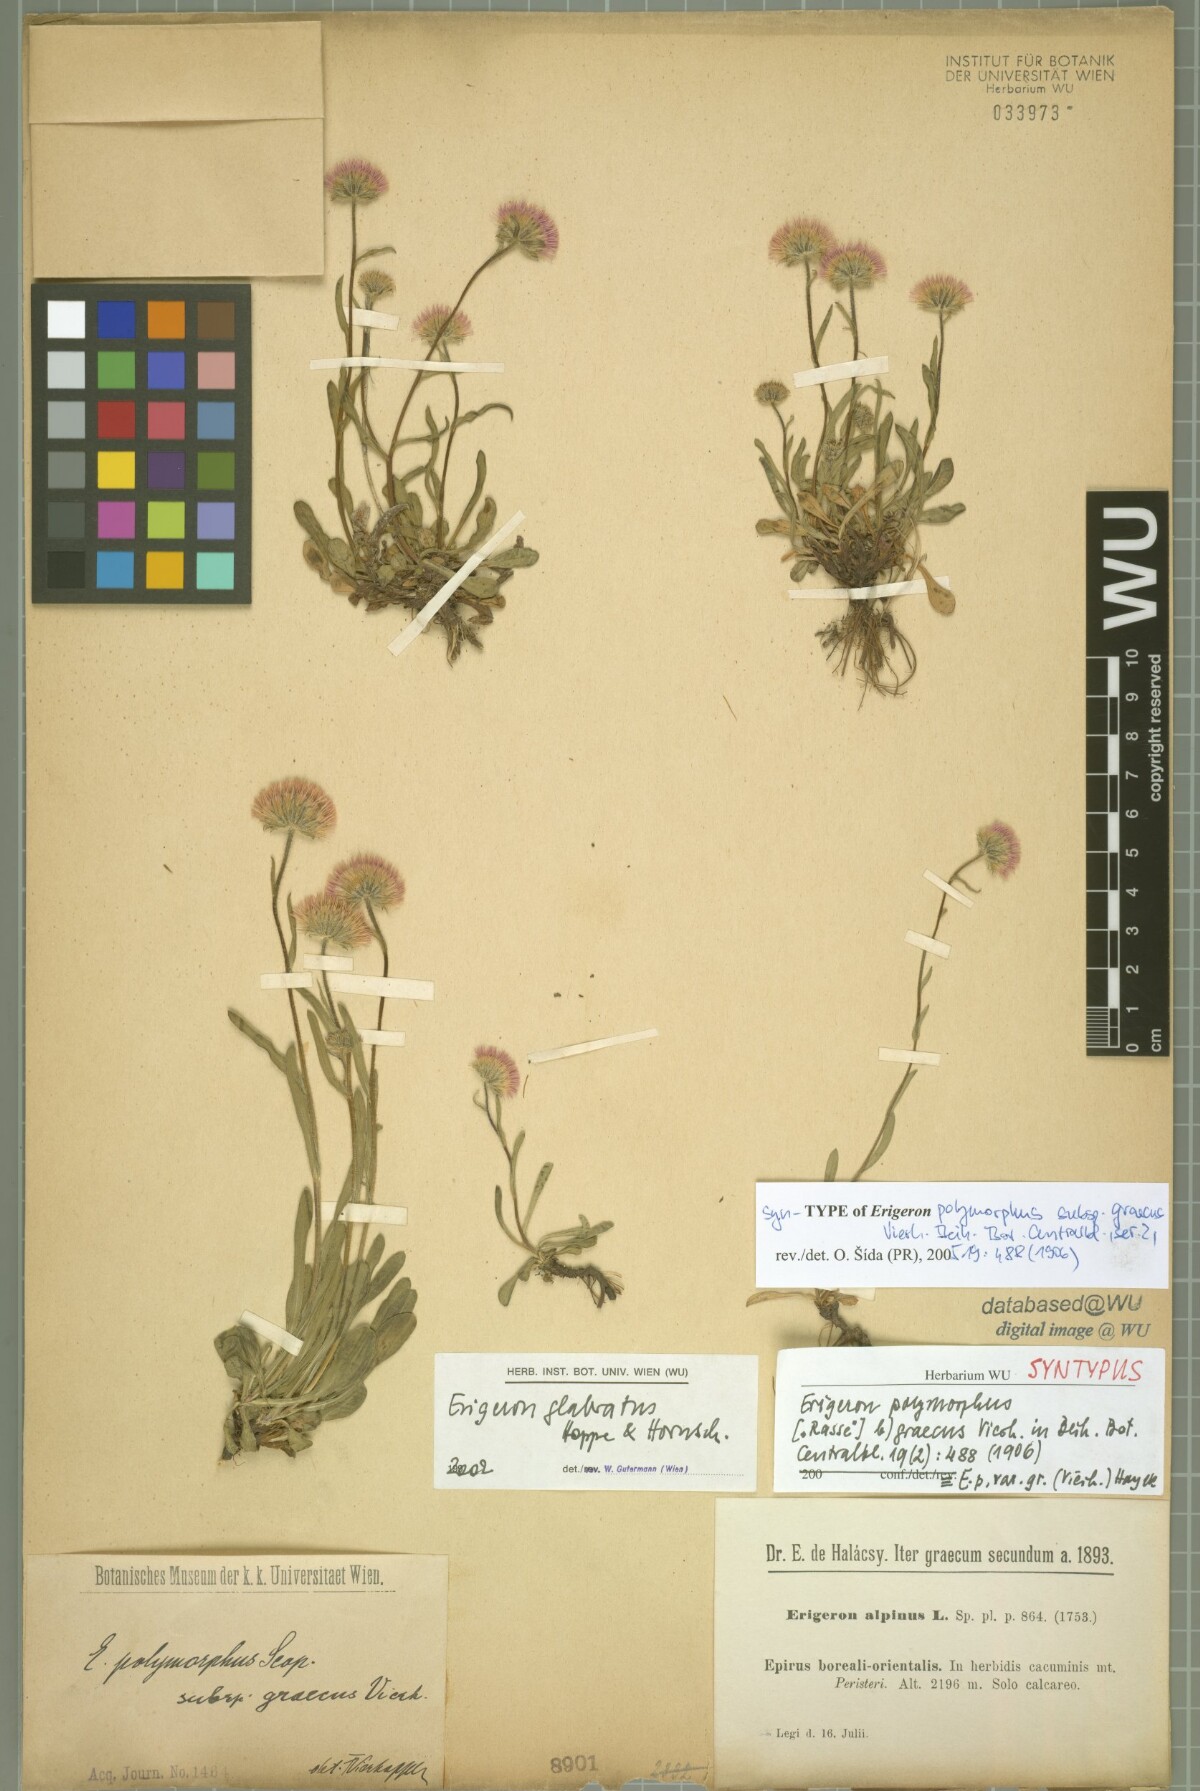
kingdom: Plantae
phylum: Tracheophyta
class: Magnoliopsida
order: Asterales
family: Asteraceae
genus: Erigeron
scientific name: Erigeron glabratus
